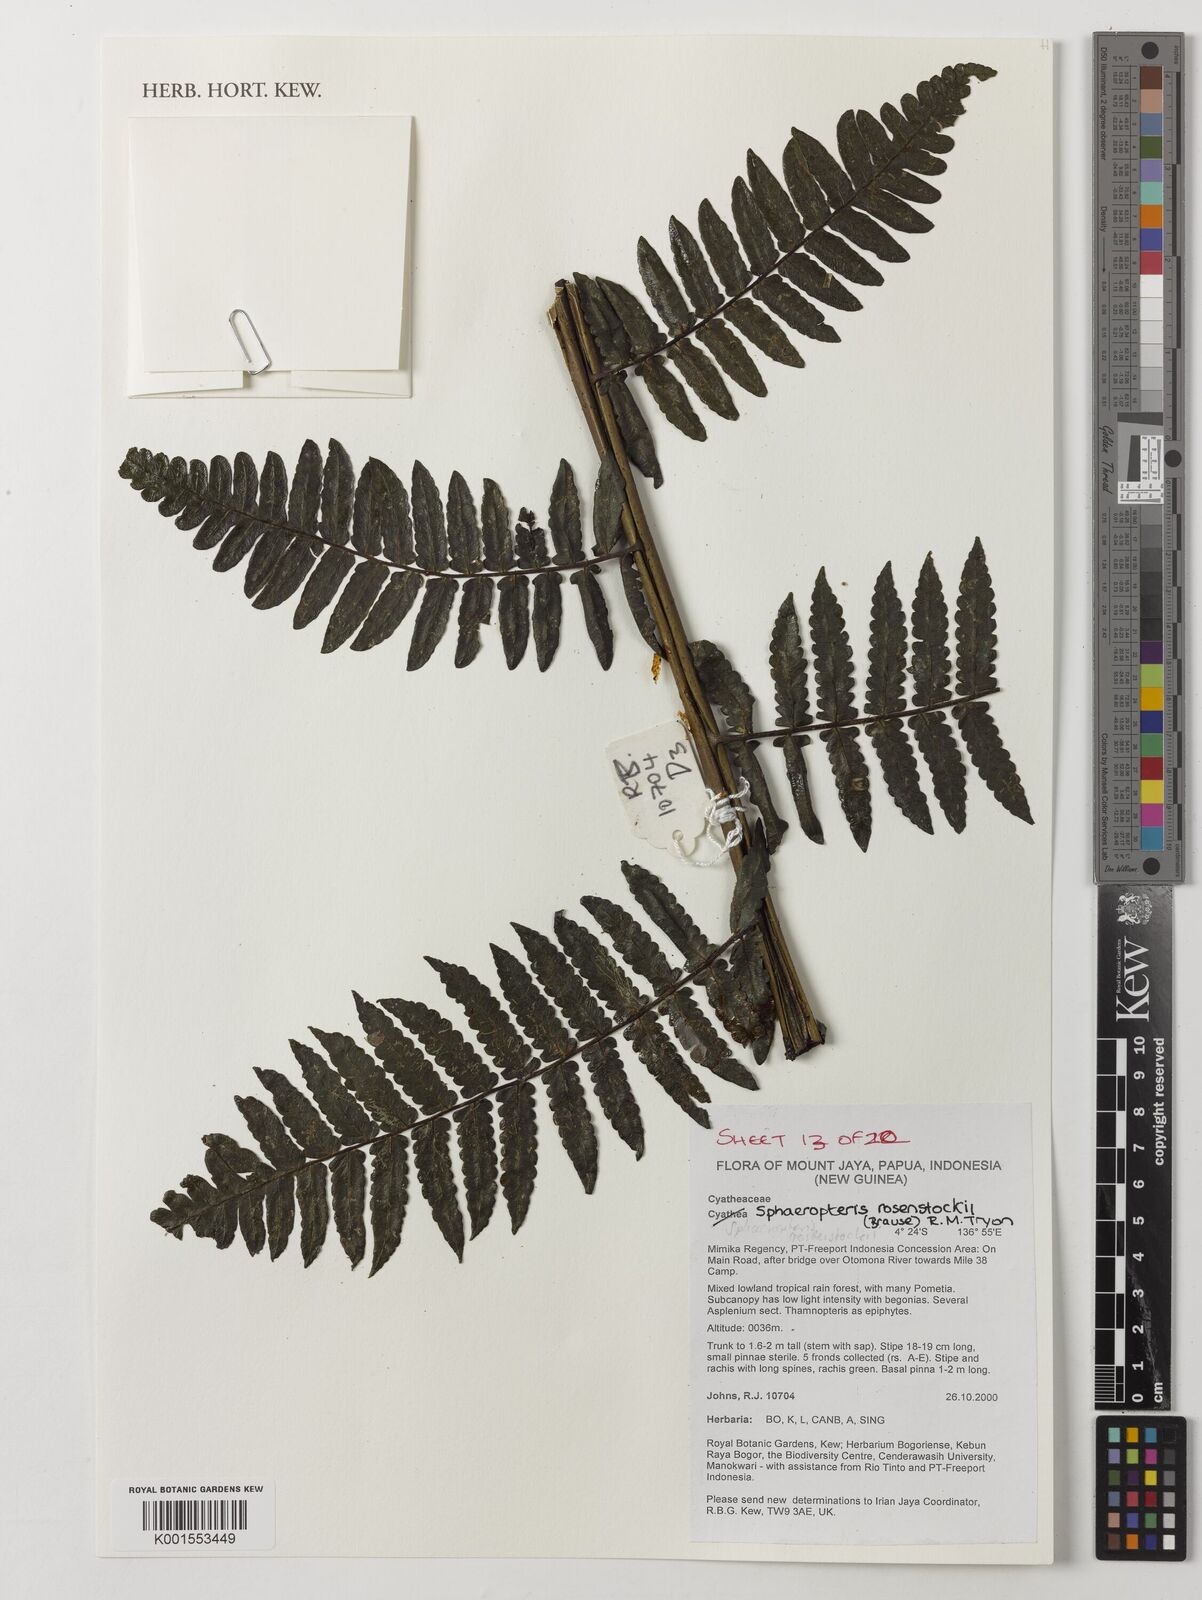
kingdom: Plantae
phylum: Tracheophyta
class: Polypodiopsida
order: Cyatheales
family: Cyatheaceae
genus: Sphaeropteris
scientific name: Sphaeropteris rosenstockii
